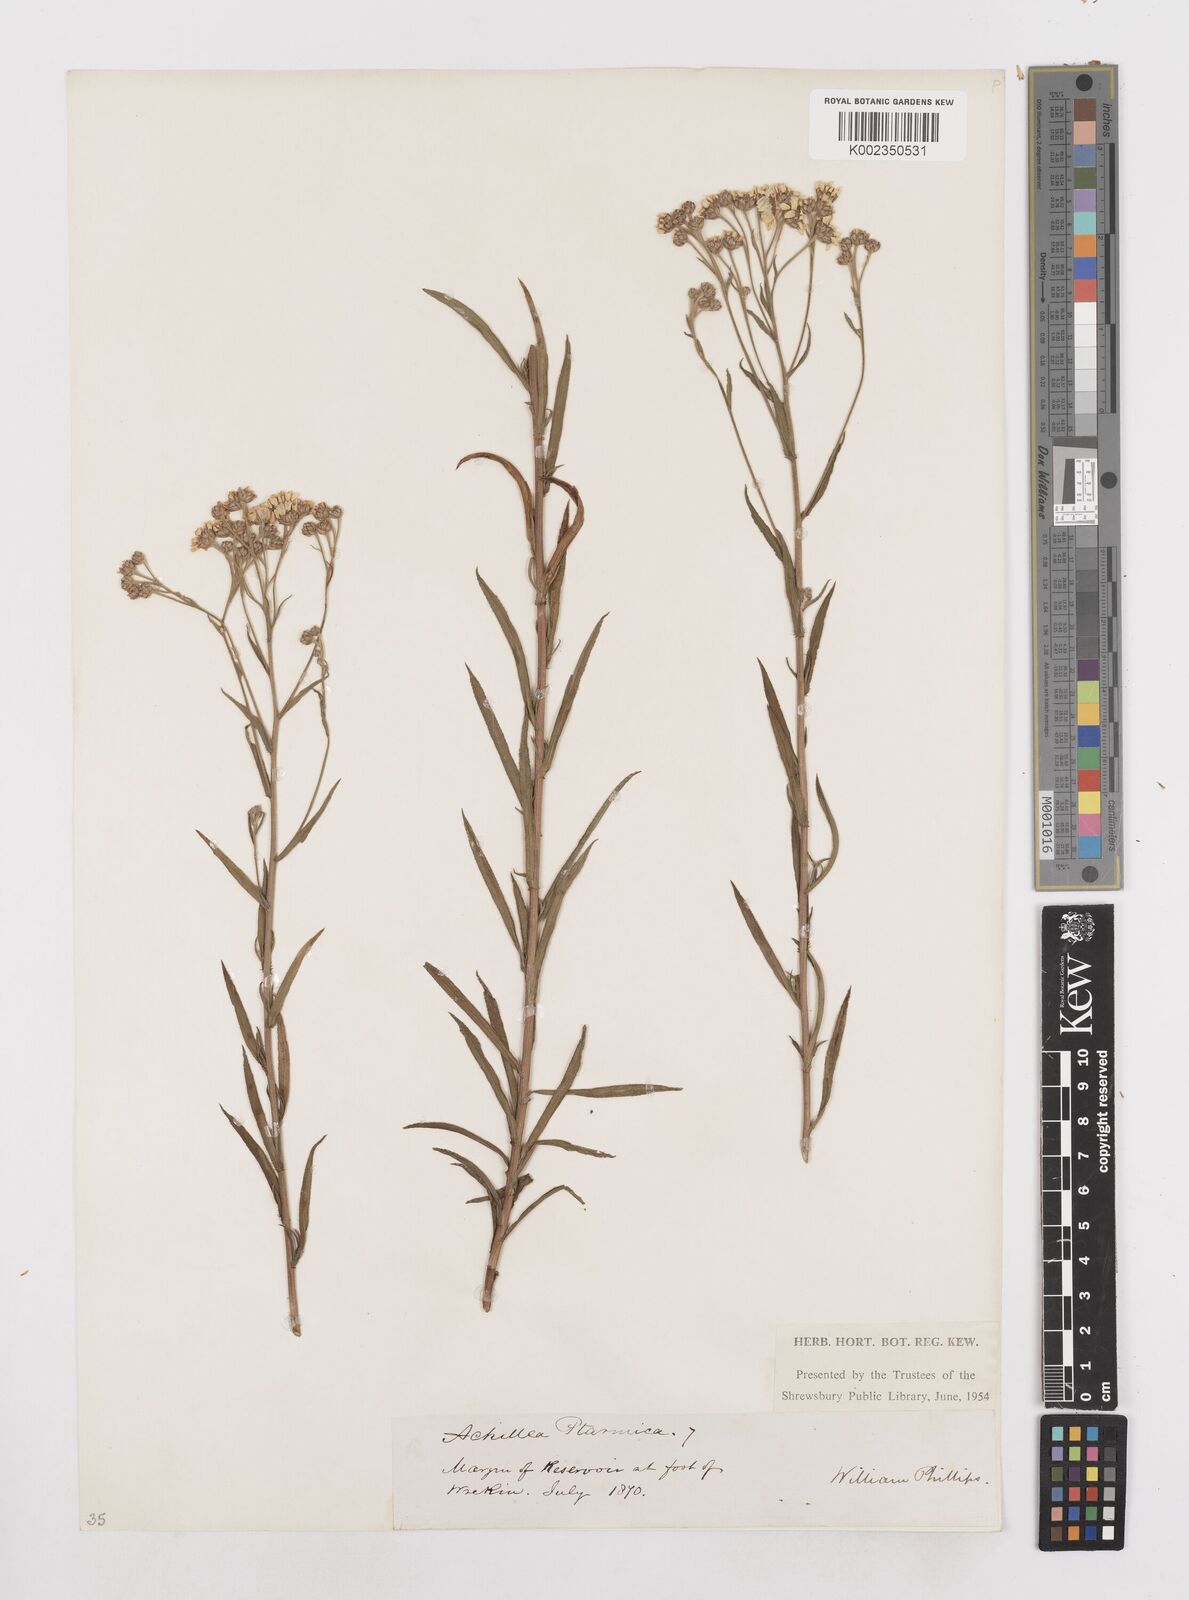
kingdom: Plantae
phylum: Tracheophyta
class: Magnoliopsida
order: Asterales
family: Asteraceae
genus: Achillea
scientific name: Achillea ptarmica
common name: Sneezeweed
